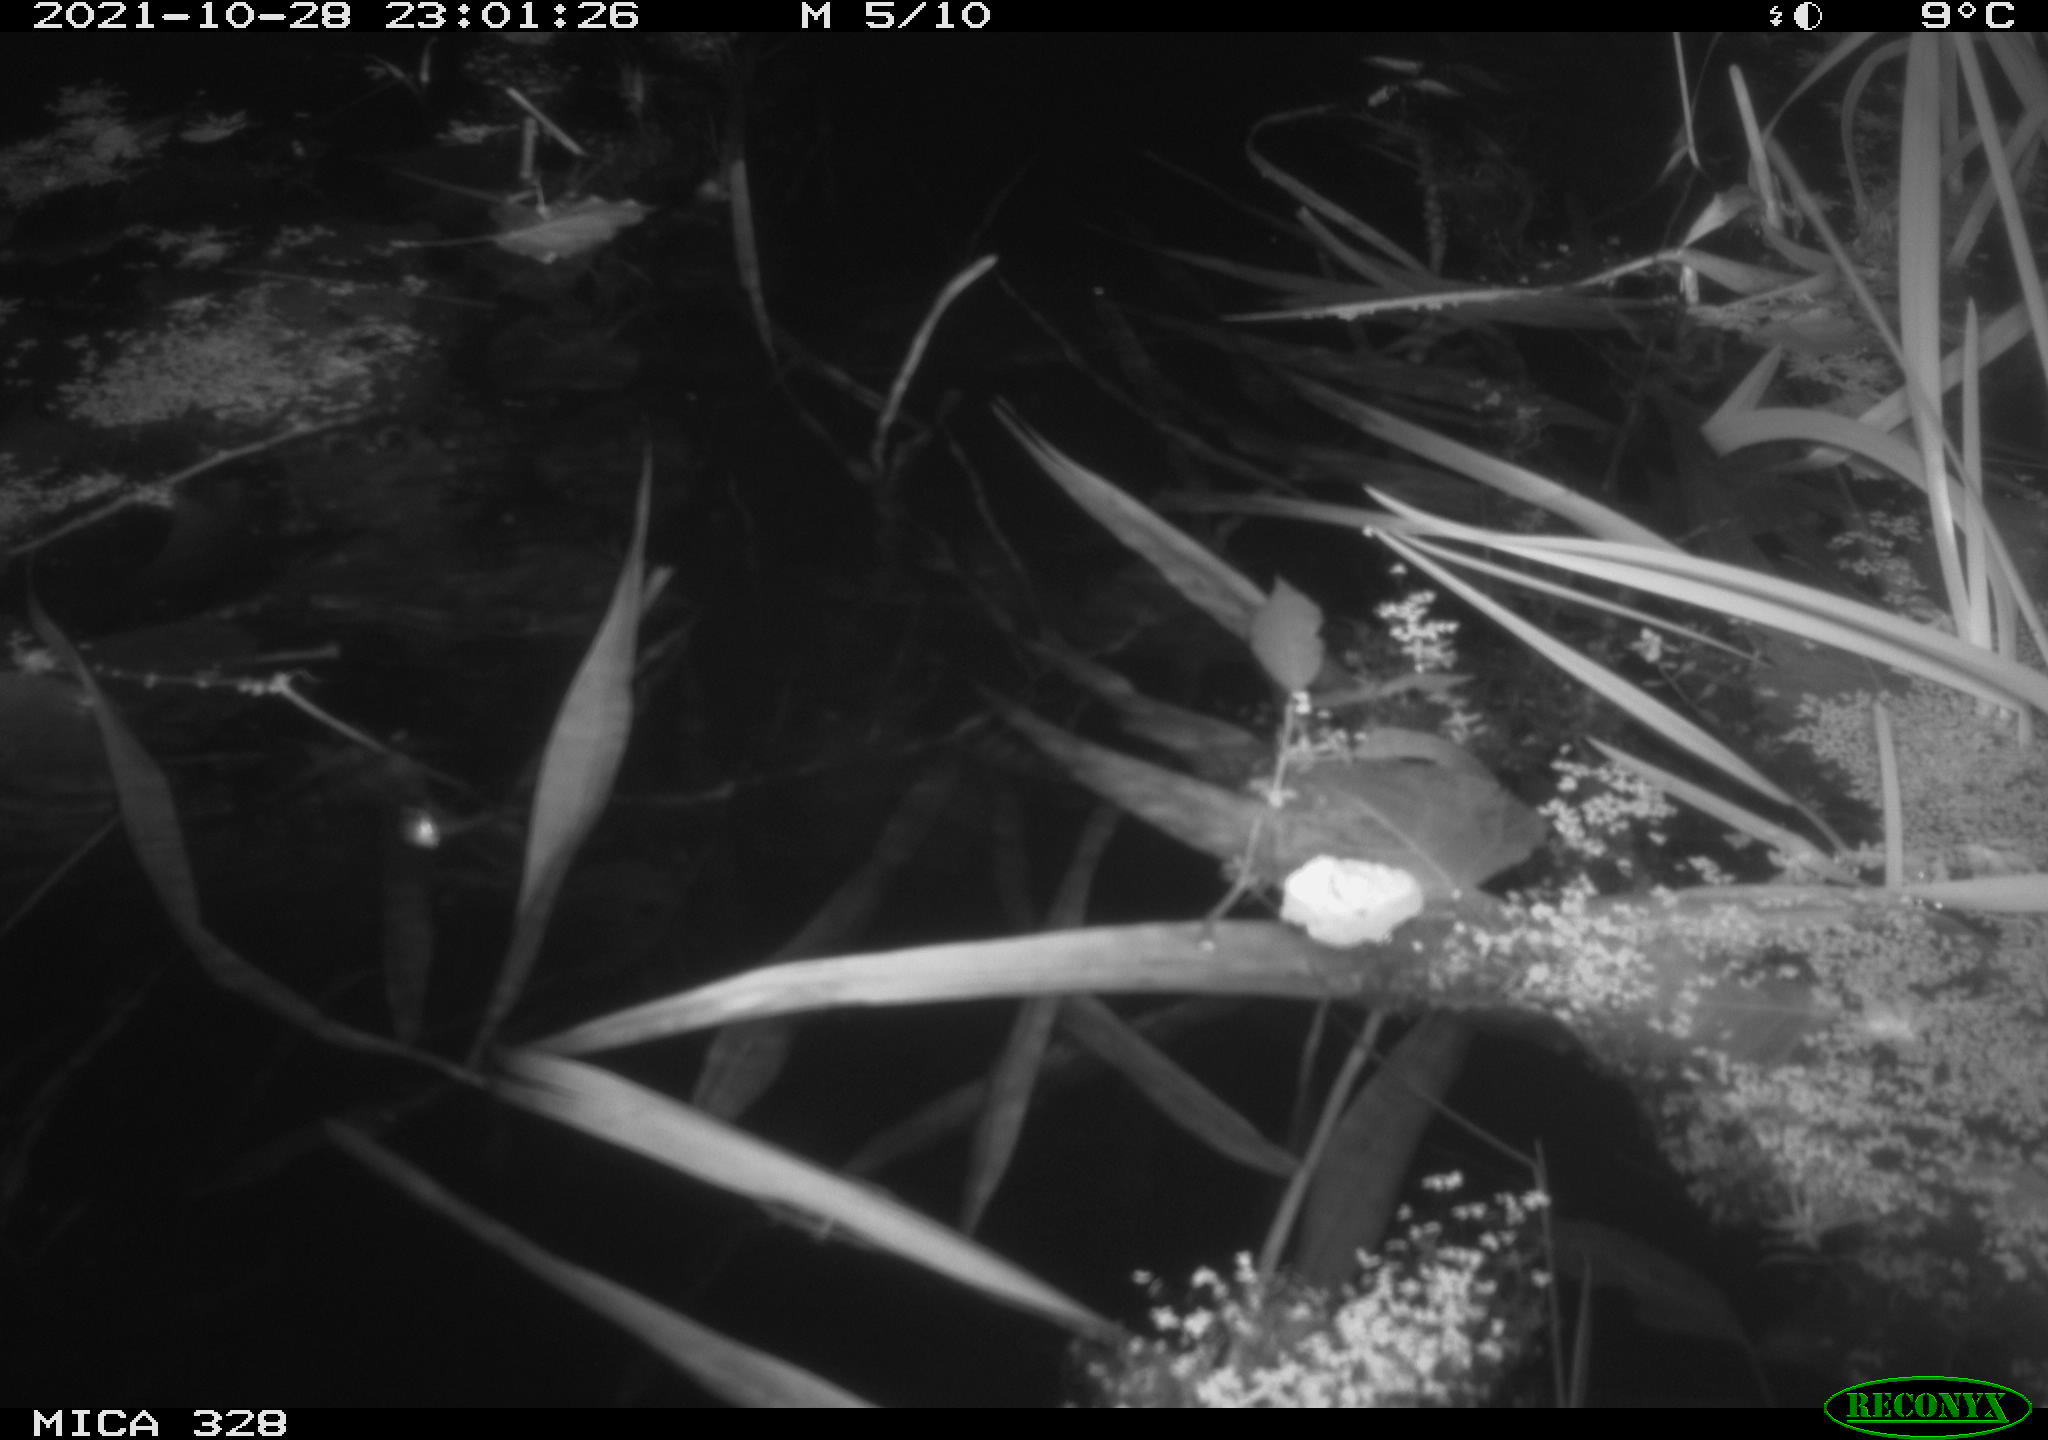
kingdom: Animalia
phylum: Chordata
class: Mammalia
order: Rodentia
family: Cricetidae
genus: Ondatra
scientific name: Ondatra zibethicus
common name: Muskrat
